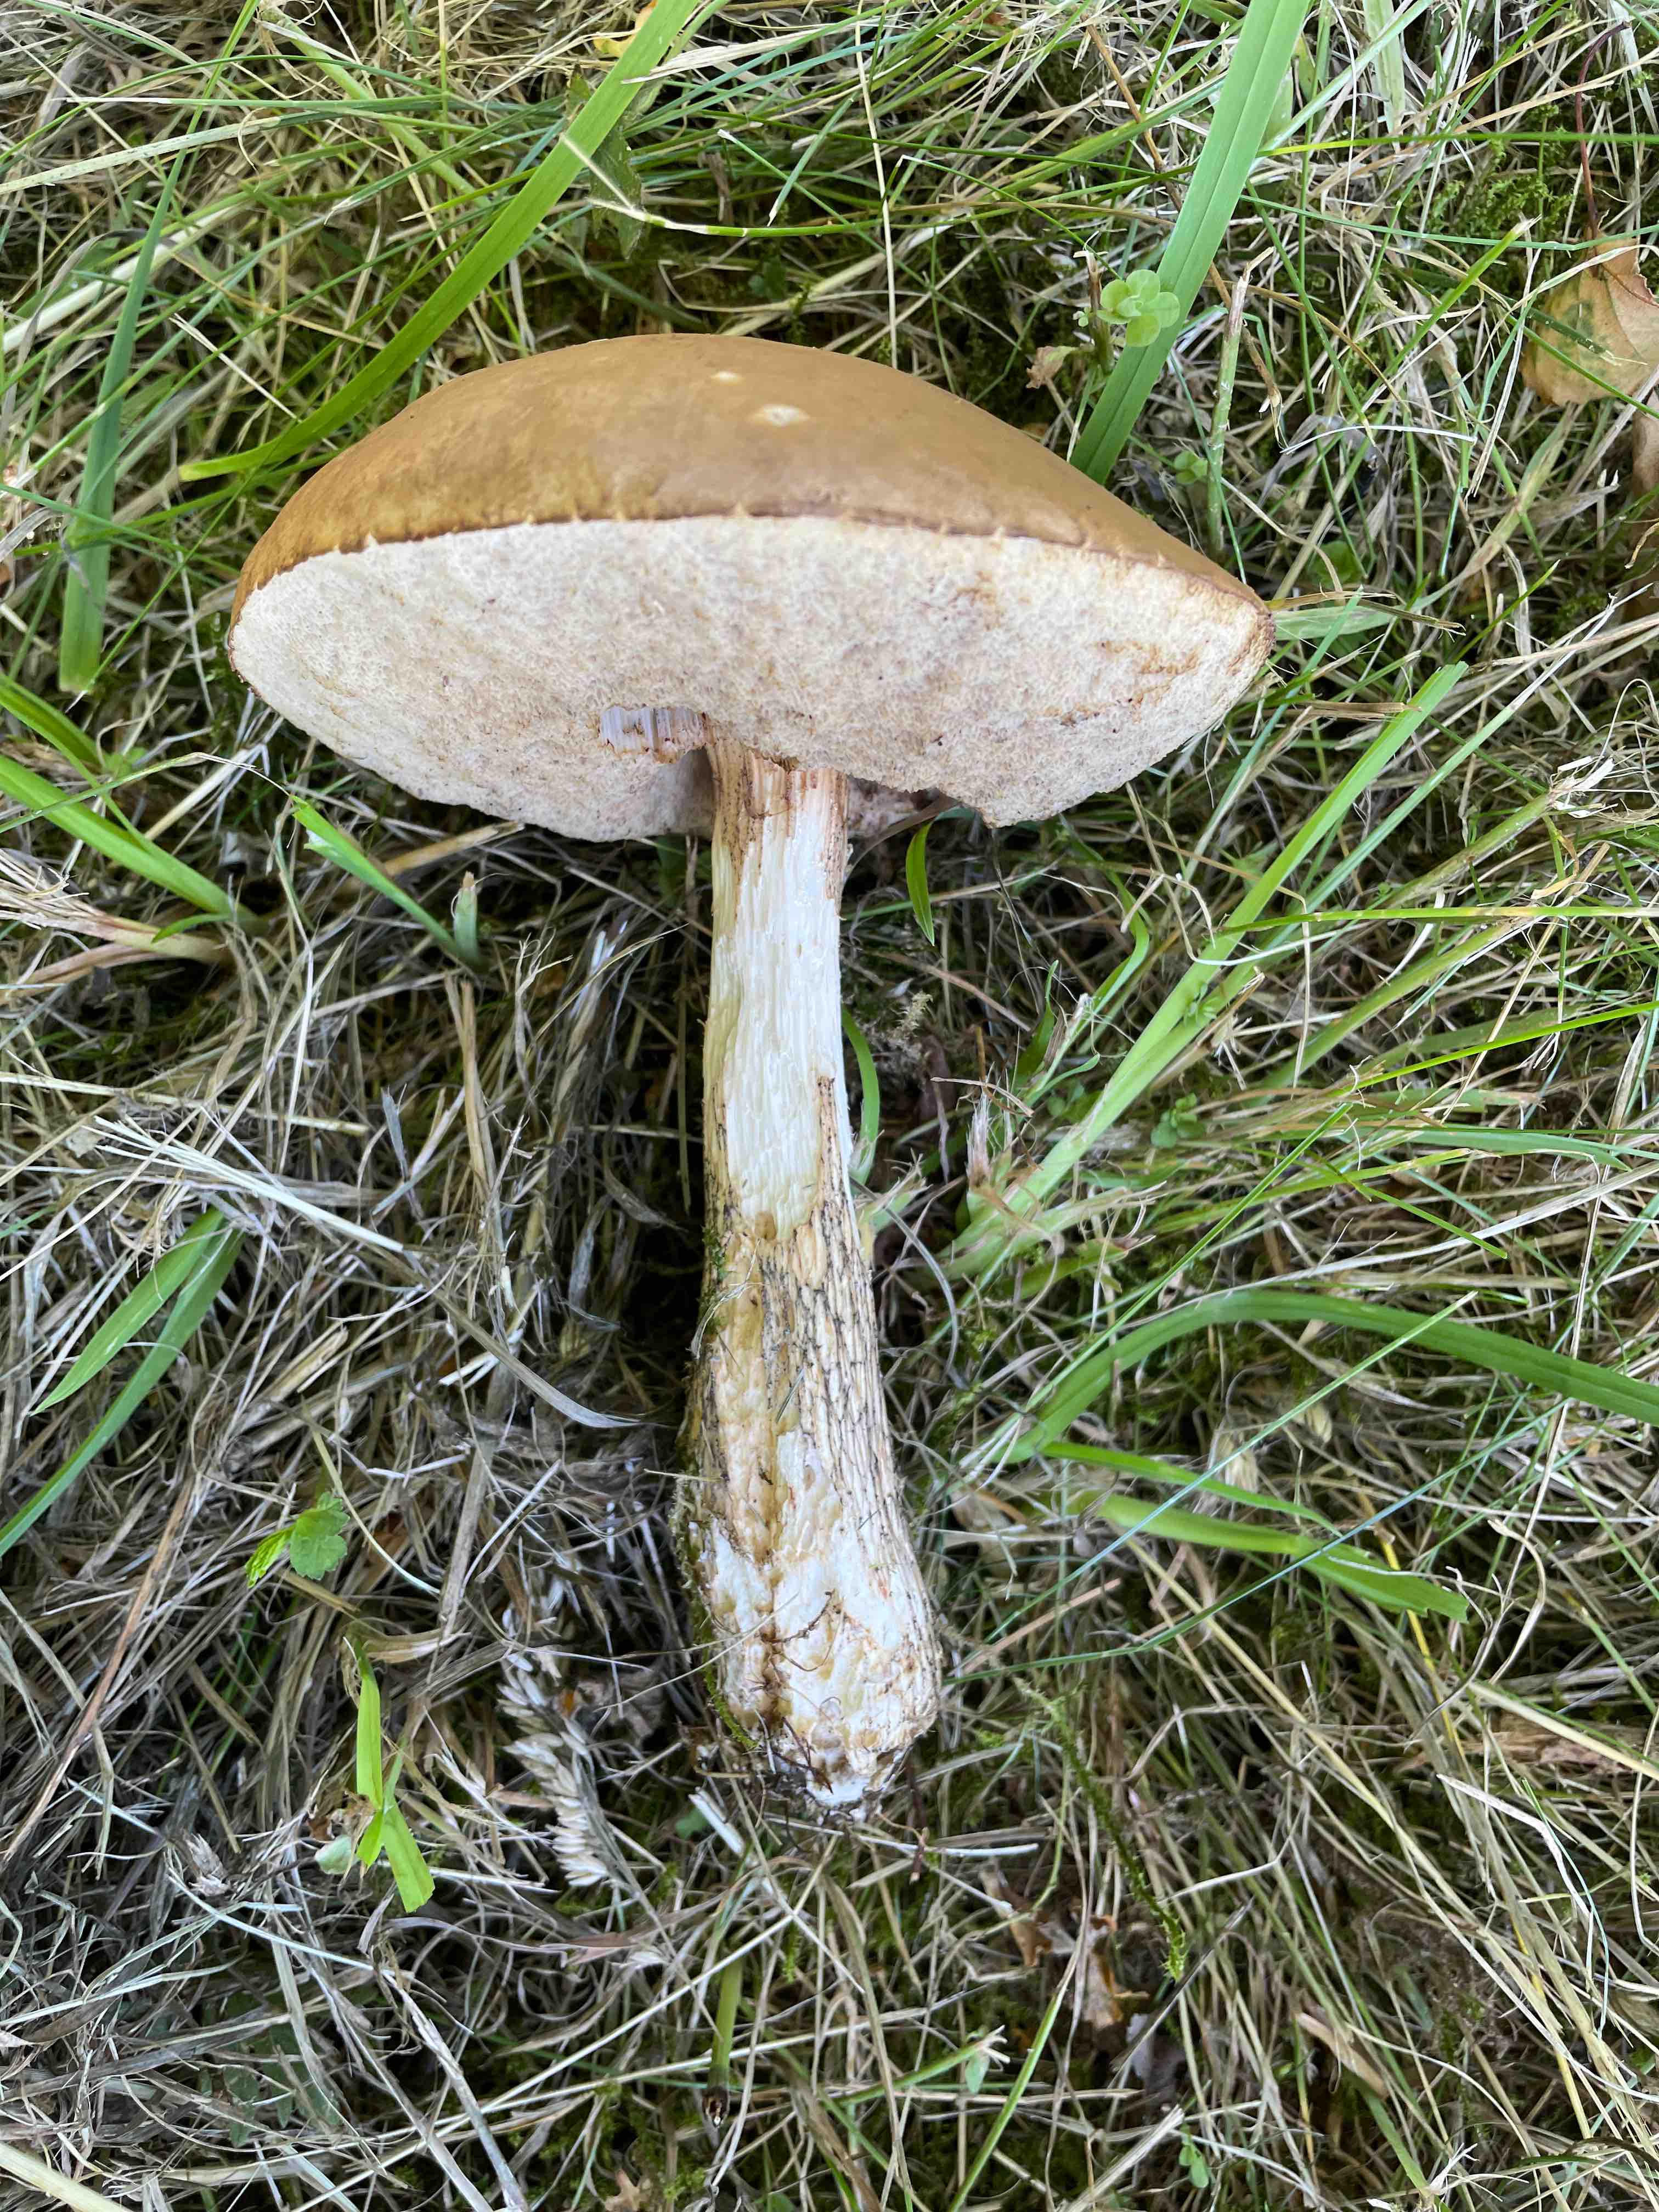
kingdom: Fungi
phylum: Basidiomycota
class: Agaricomycetes
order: Boletales
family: Boletaceae
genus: Leccinum
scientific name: Leccinum
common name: skælrørhat
